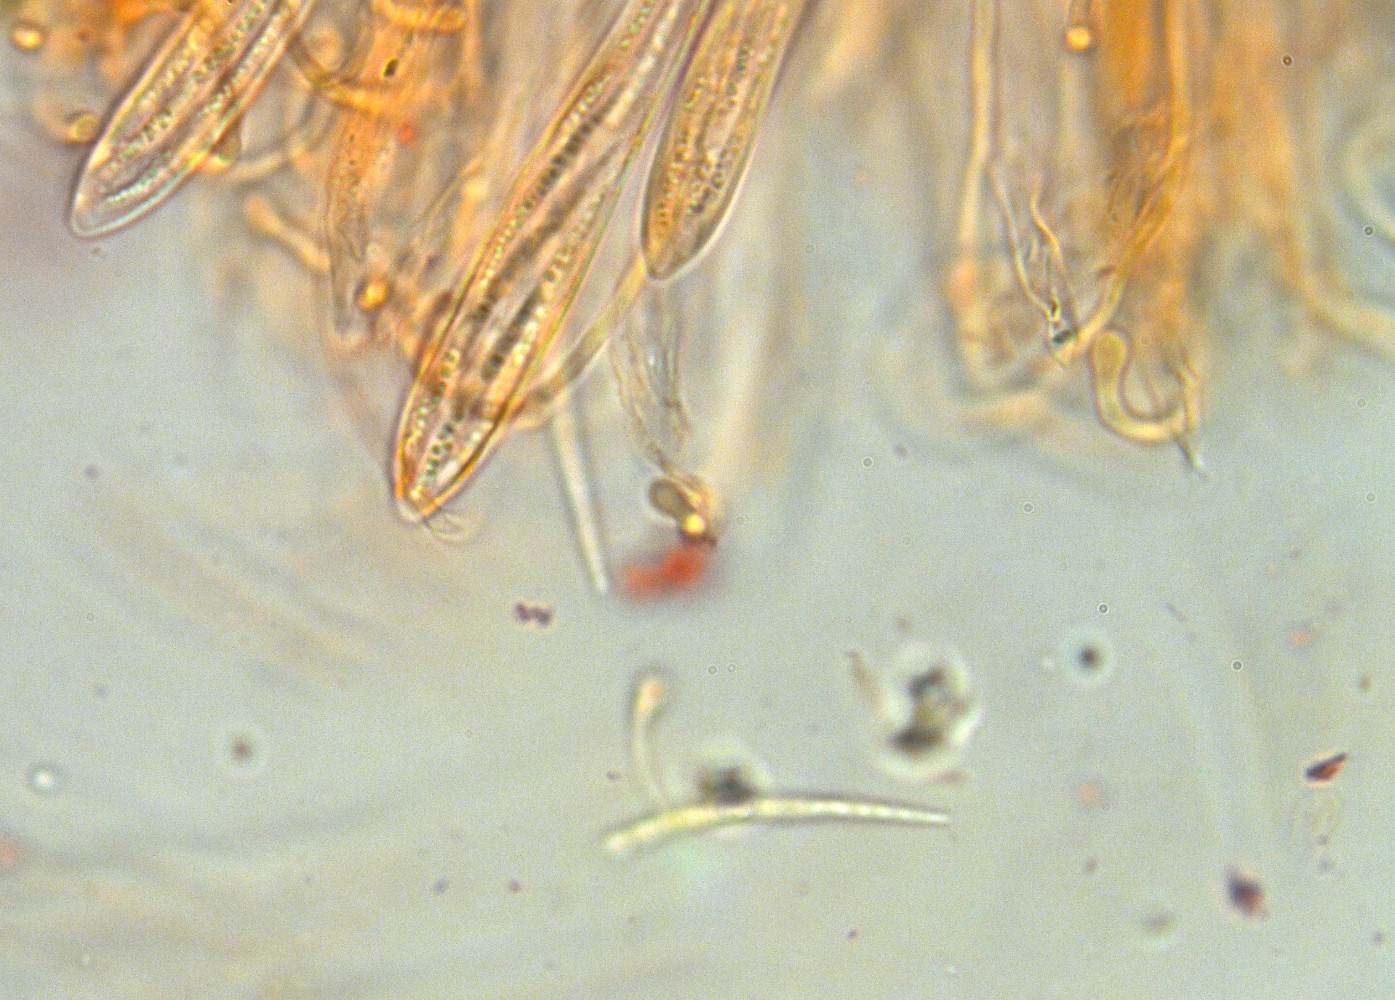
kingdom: Fungi
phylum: Ascomycota
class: Leotiomycetes
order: Rhytismatales
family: Cudoniaceae
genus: Cudonia
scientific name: Cudonia circinans
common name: hekserings-hjelmmorkel
